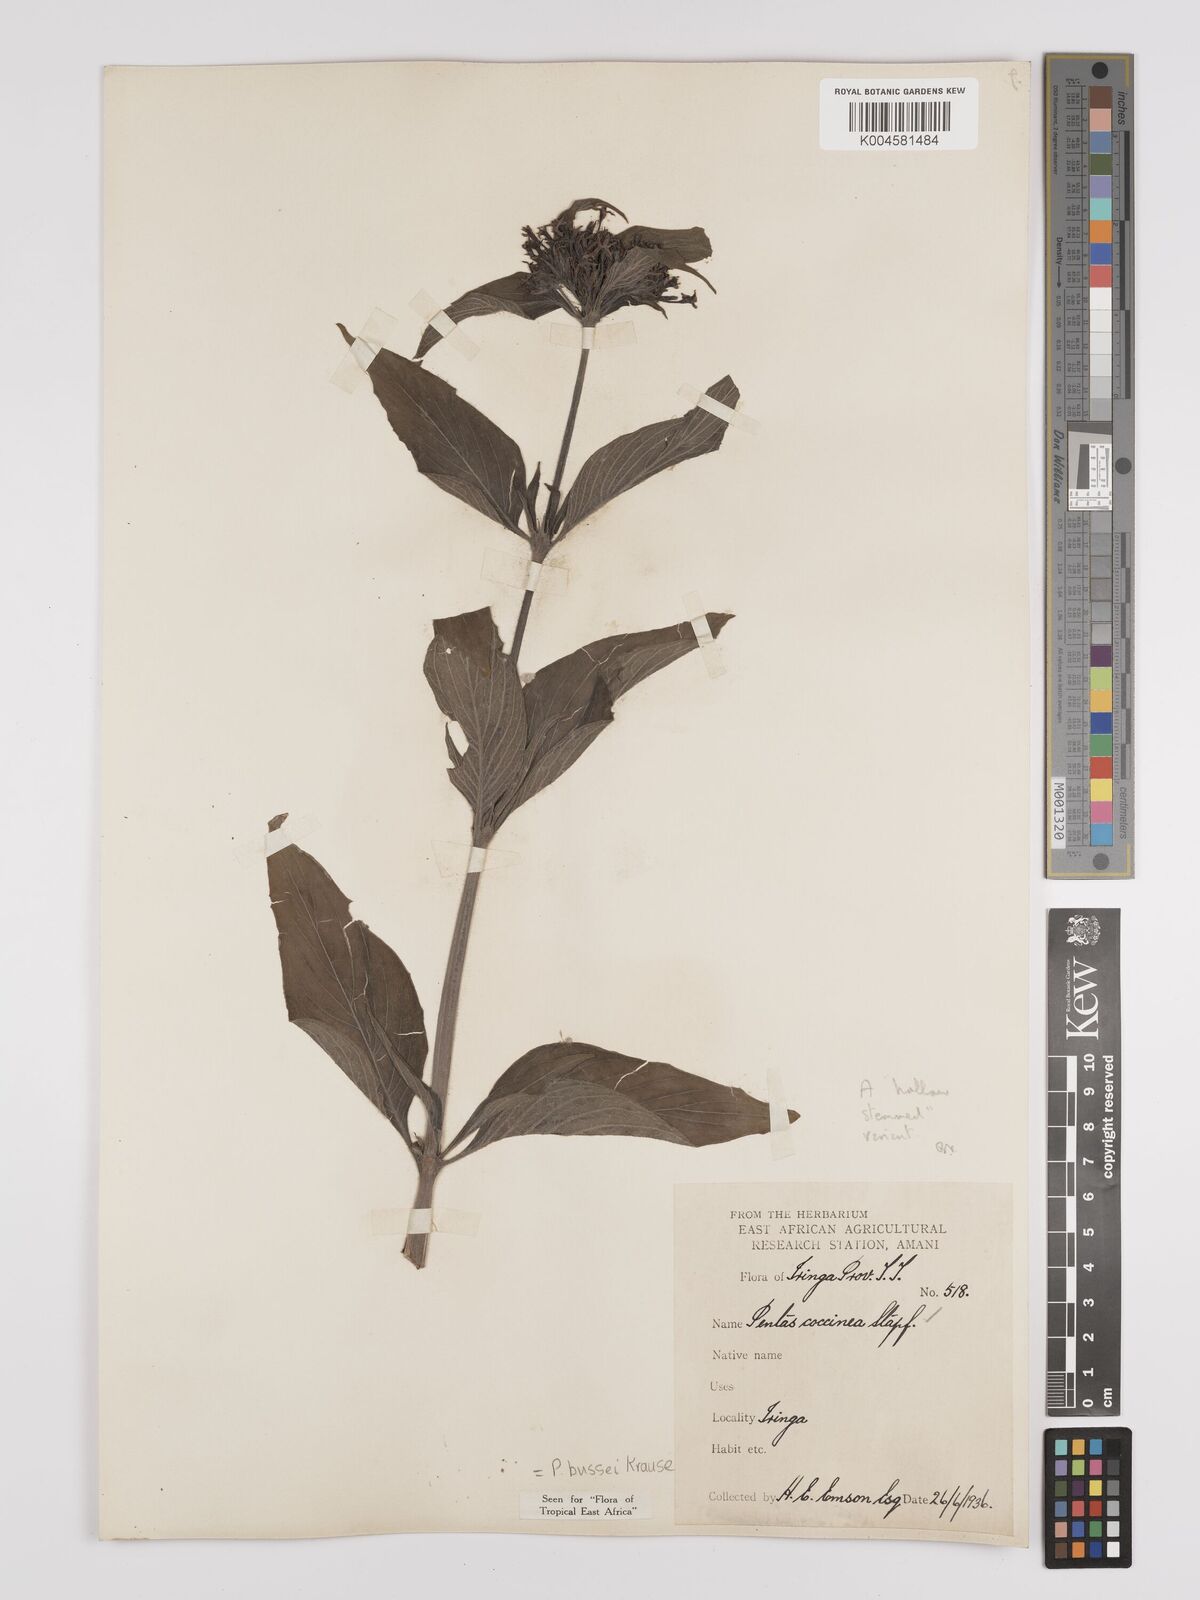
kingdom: Plantae
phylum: Tracheophyta
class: Magnoliopsida
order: Gentianales
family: Rubiaceae
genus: Rhodopentas
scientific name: Rhodopentas bussei
